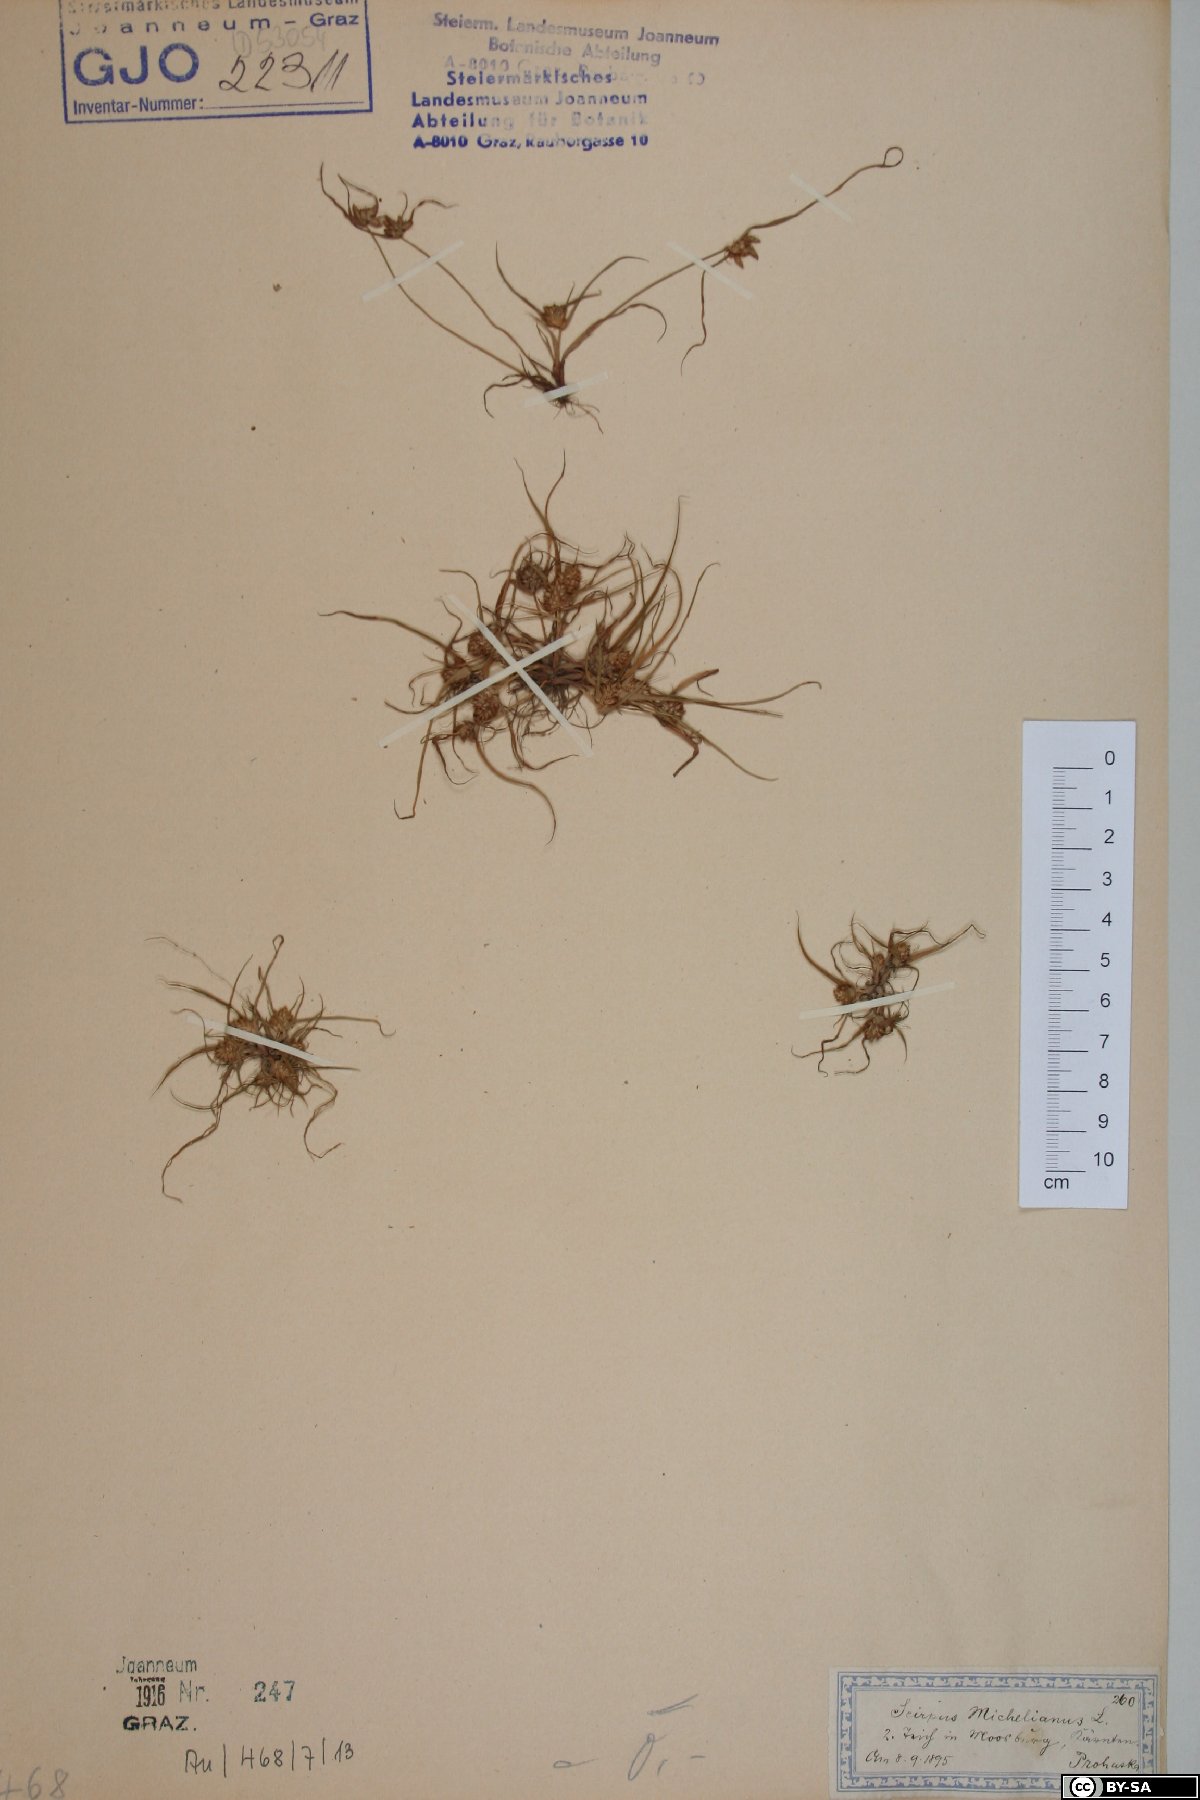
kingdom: Plantae
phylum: Tracheophyta
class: Liliopsida
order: Poales
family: Cyperaceae
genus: Cyperus
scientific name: Cyperus michelianus
